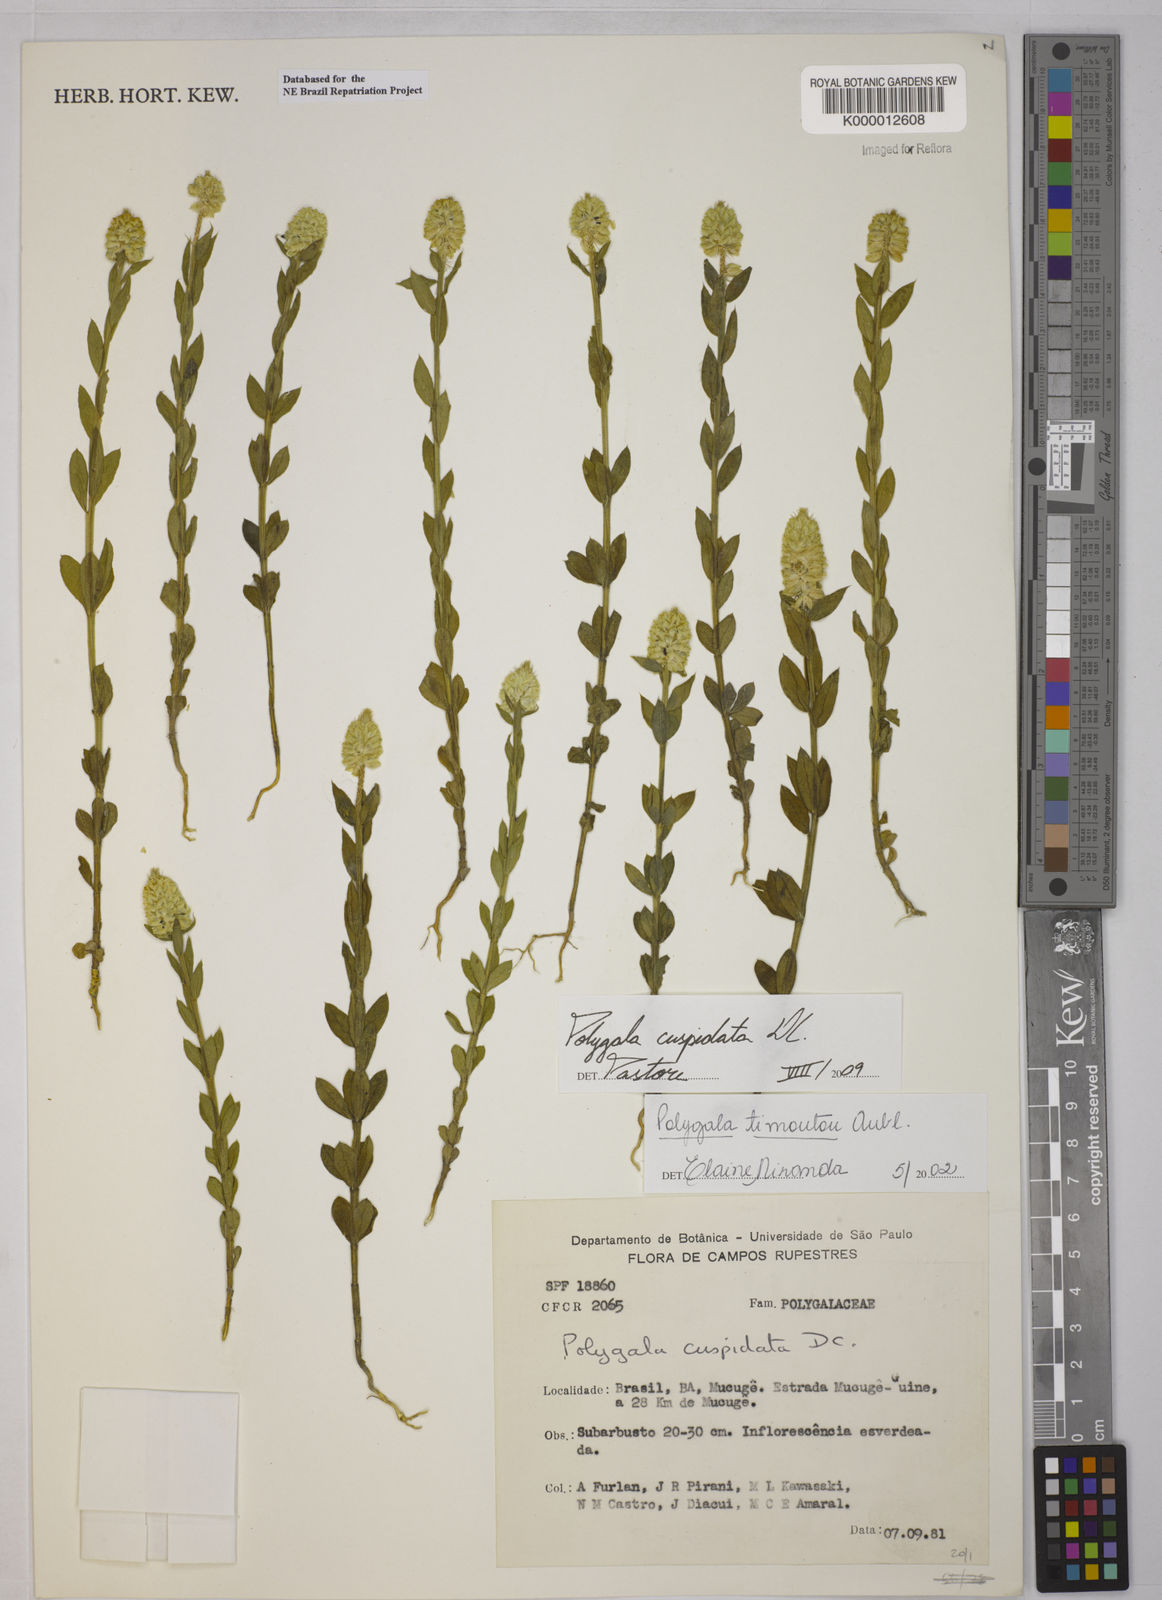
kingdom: Plantae
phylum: Tracheophyta
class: Magnoliopsida
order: Fabales
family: Polygalaceae
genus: Polygala
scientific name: Polygala timoutou
